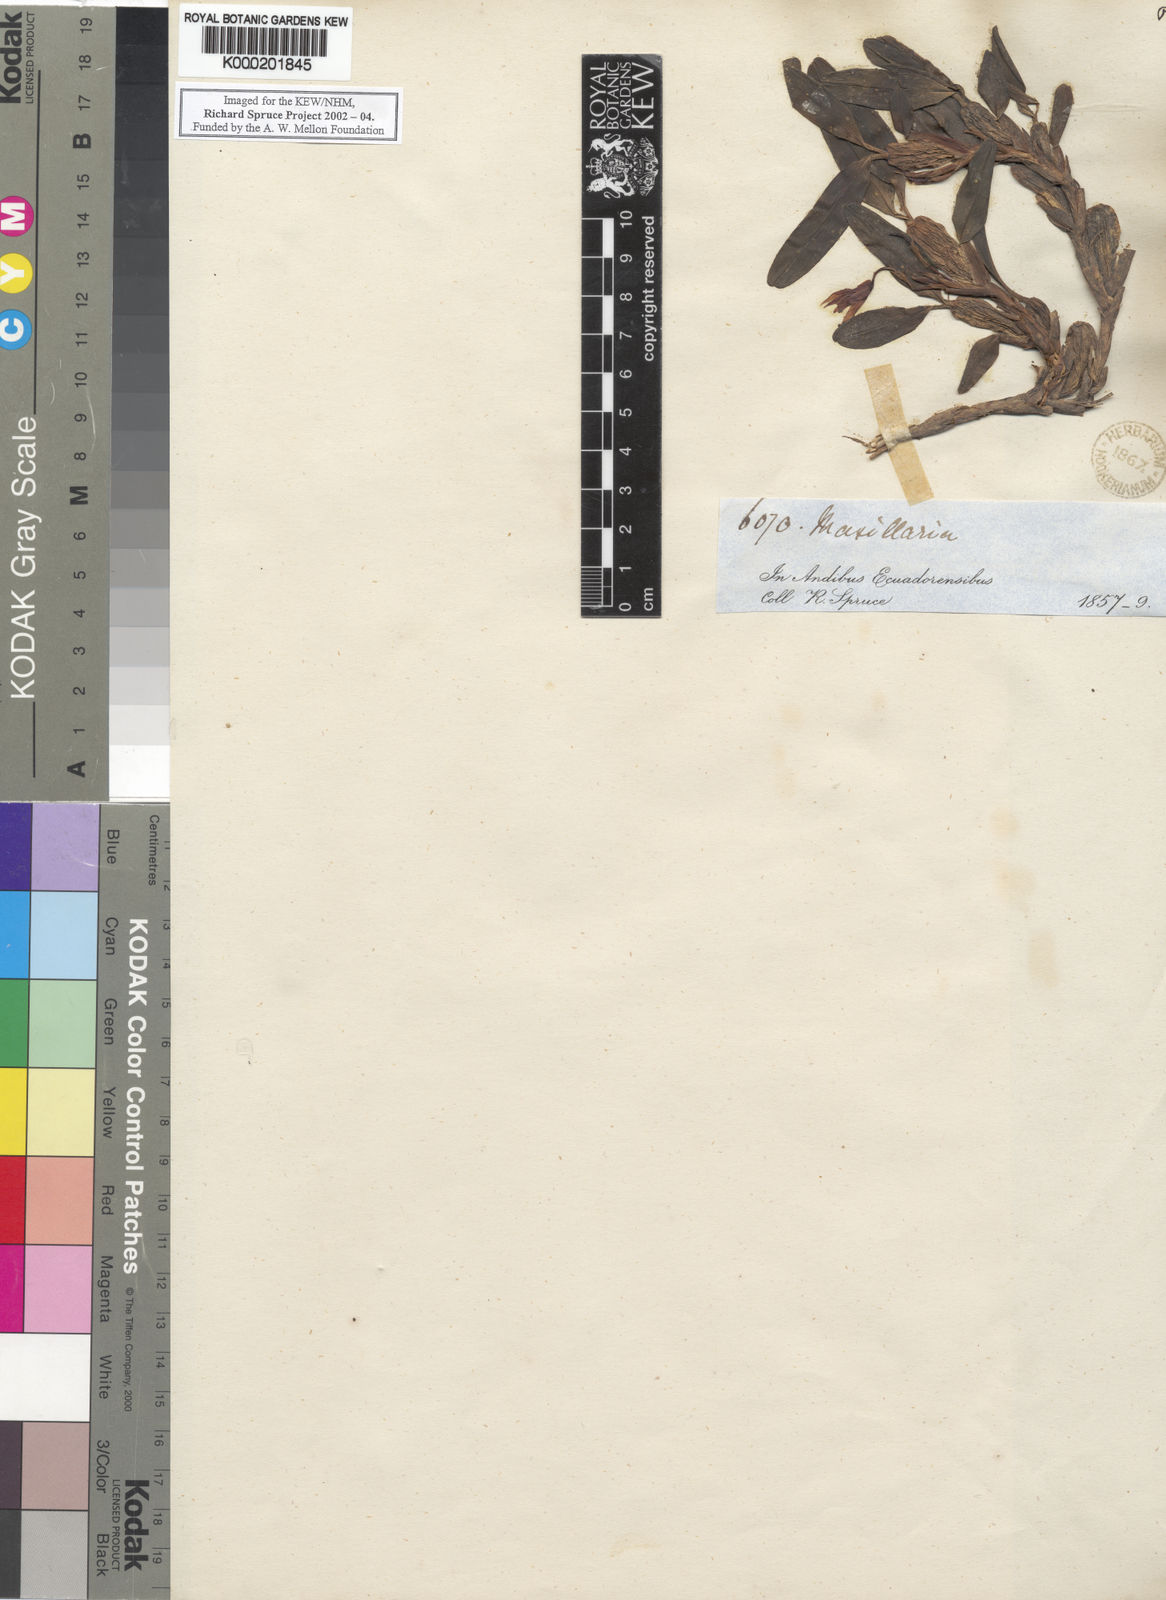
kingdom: Plantae
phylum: Tracheophyta
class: Liliopsida
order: Asparagales
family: Orchidaceae
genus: Maxillaria
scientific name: Maxillaria estradae
